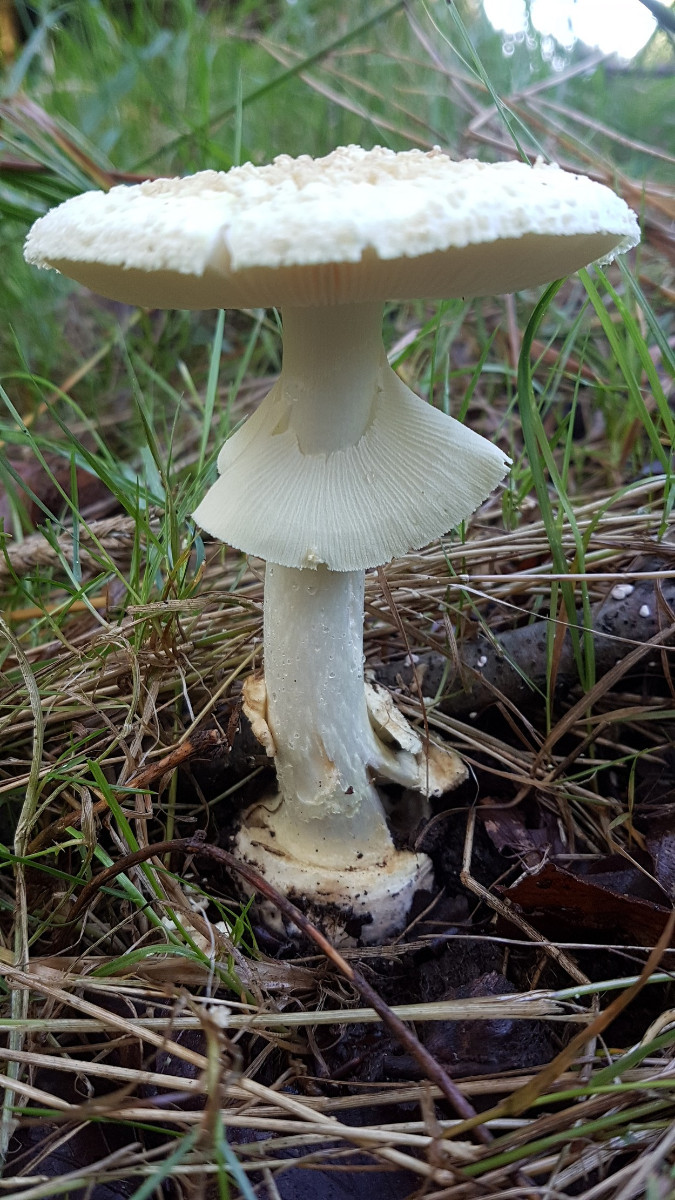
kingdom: Fungi
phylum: Basidiomycota
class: Agaricomycetes
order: Agaricales
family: Amanitaceae
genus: Amanita
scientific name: Amanita citrina
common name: kugleknoldet fluesvamp
